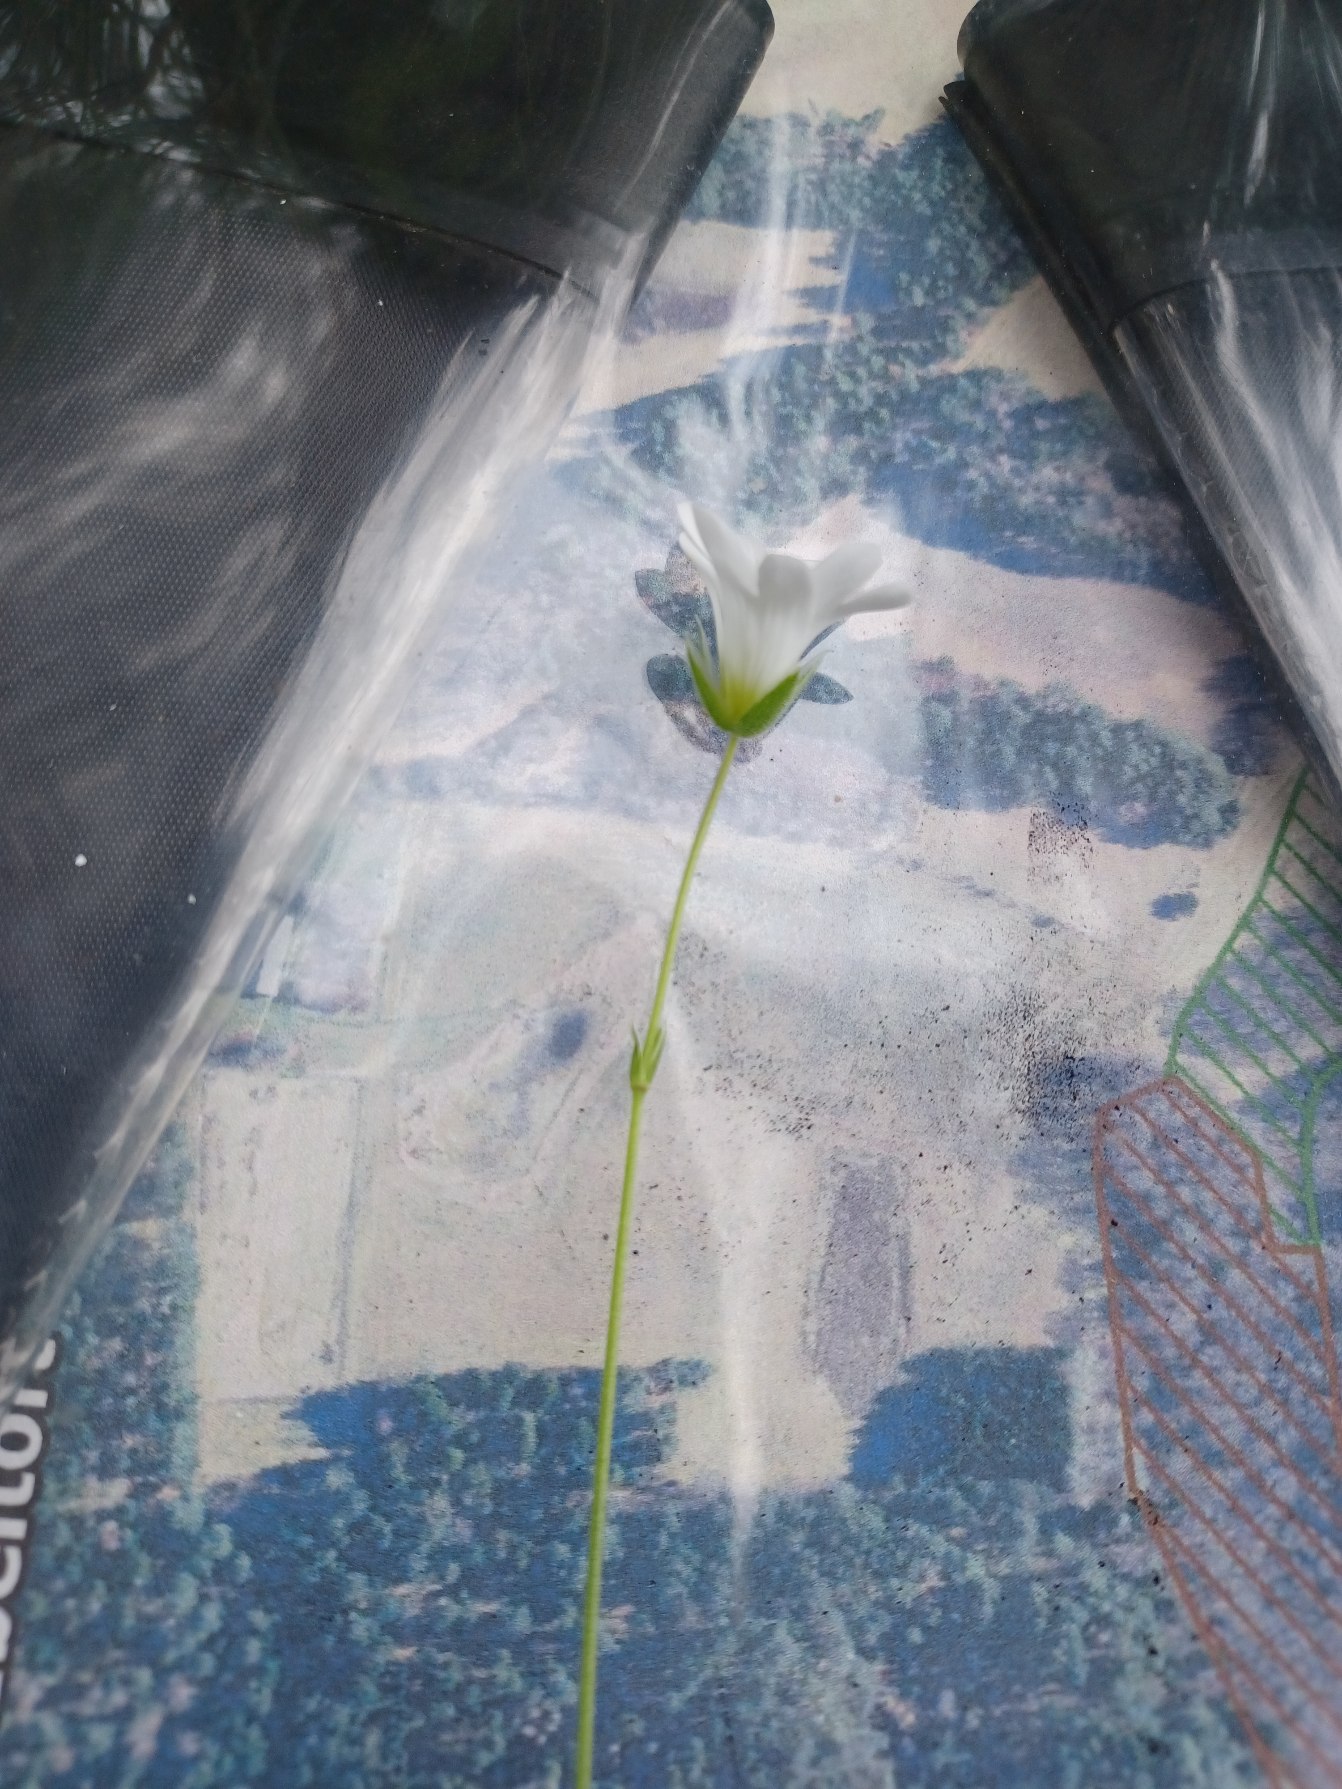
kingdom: Plantae
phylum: Tracheophyta
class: Magnoliopsida
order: Caryophyllales
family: Caryophyllaceae
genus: Cerastium
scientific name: Cerastium arvense
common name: Storblomstret hønsetarm
